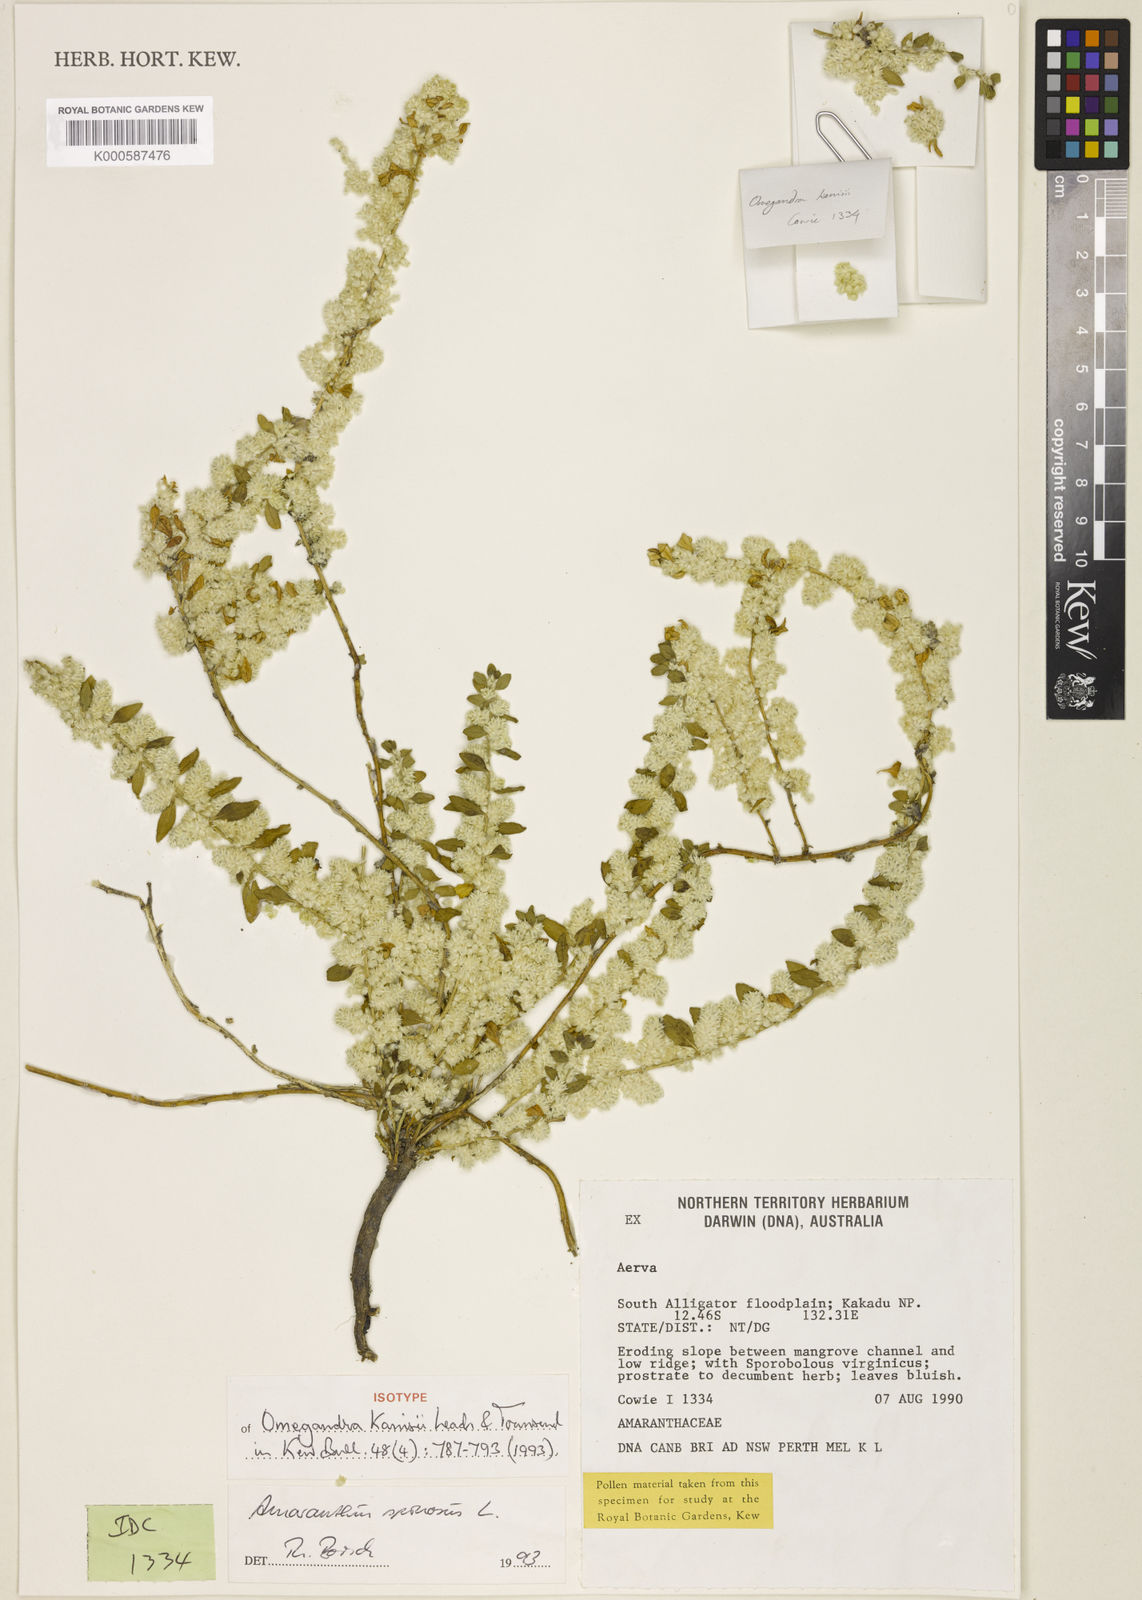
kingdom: Plantae
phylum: Tracheophyta
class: Magnoliopsida
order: Caryophyllales
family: Amaranthaceae
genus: Omegandra
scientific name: Omegandra kanisii
